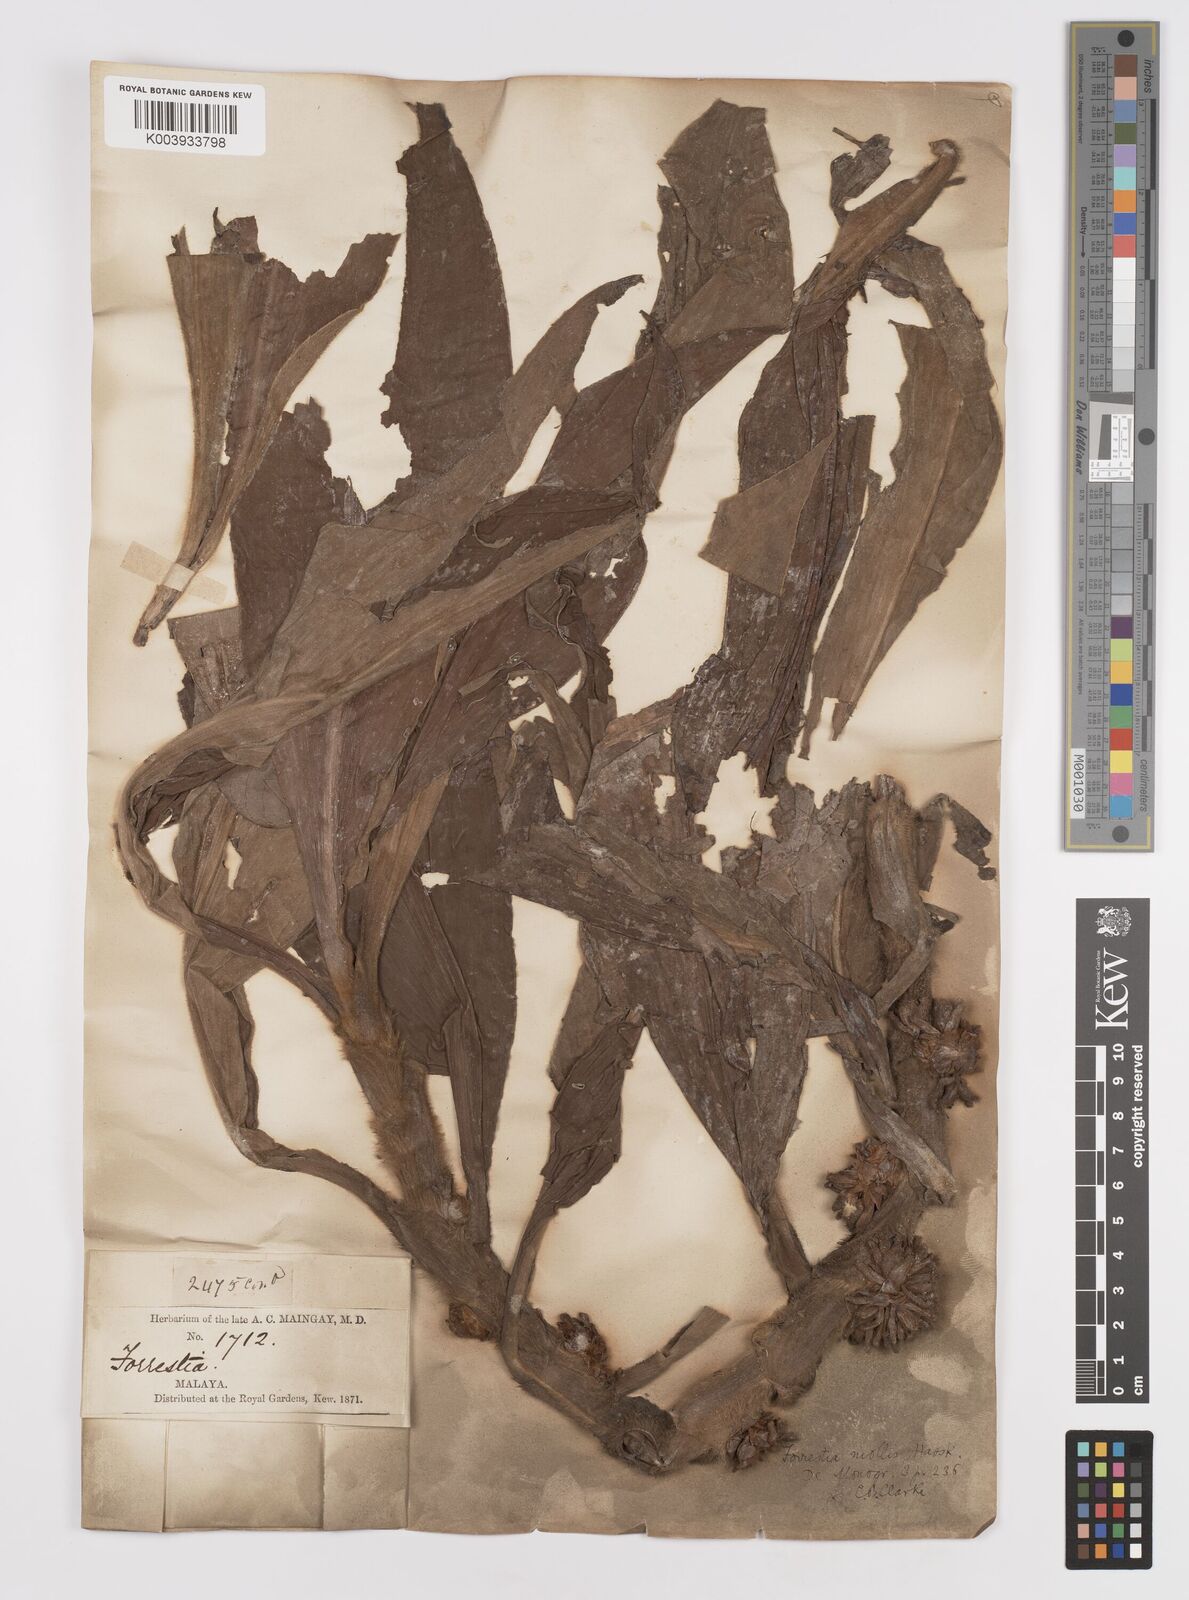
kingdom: Plantae
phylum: Tracheophyta
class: Liliopsida
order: Commelinales
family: Commelinaceae
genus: Amischotolype
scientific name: Amischotolype mollissima
